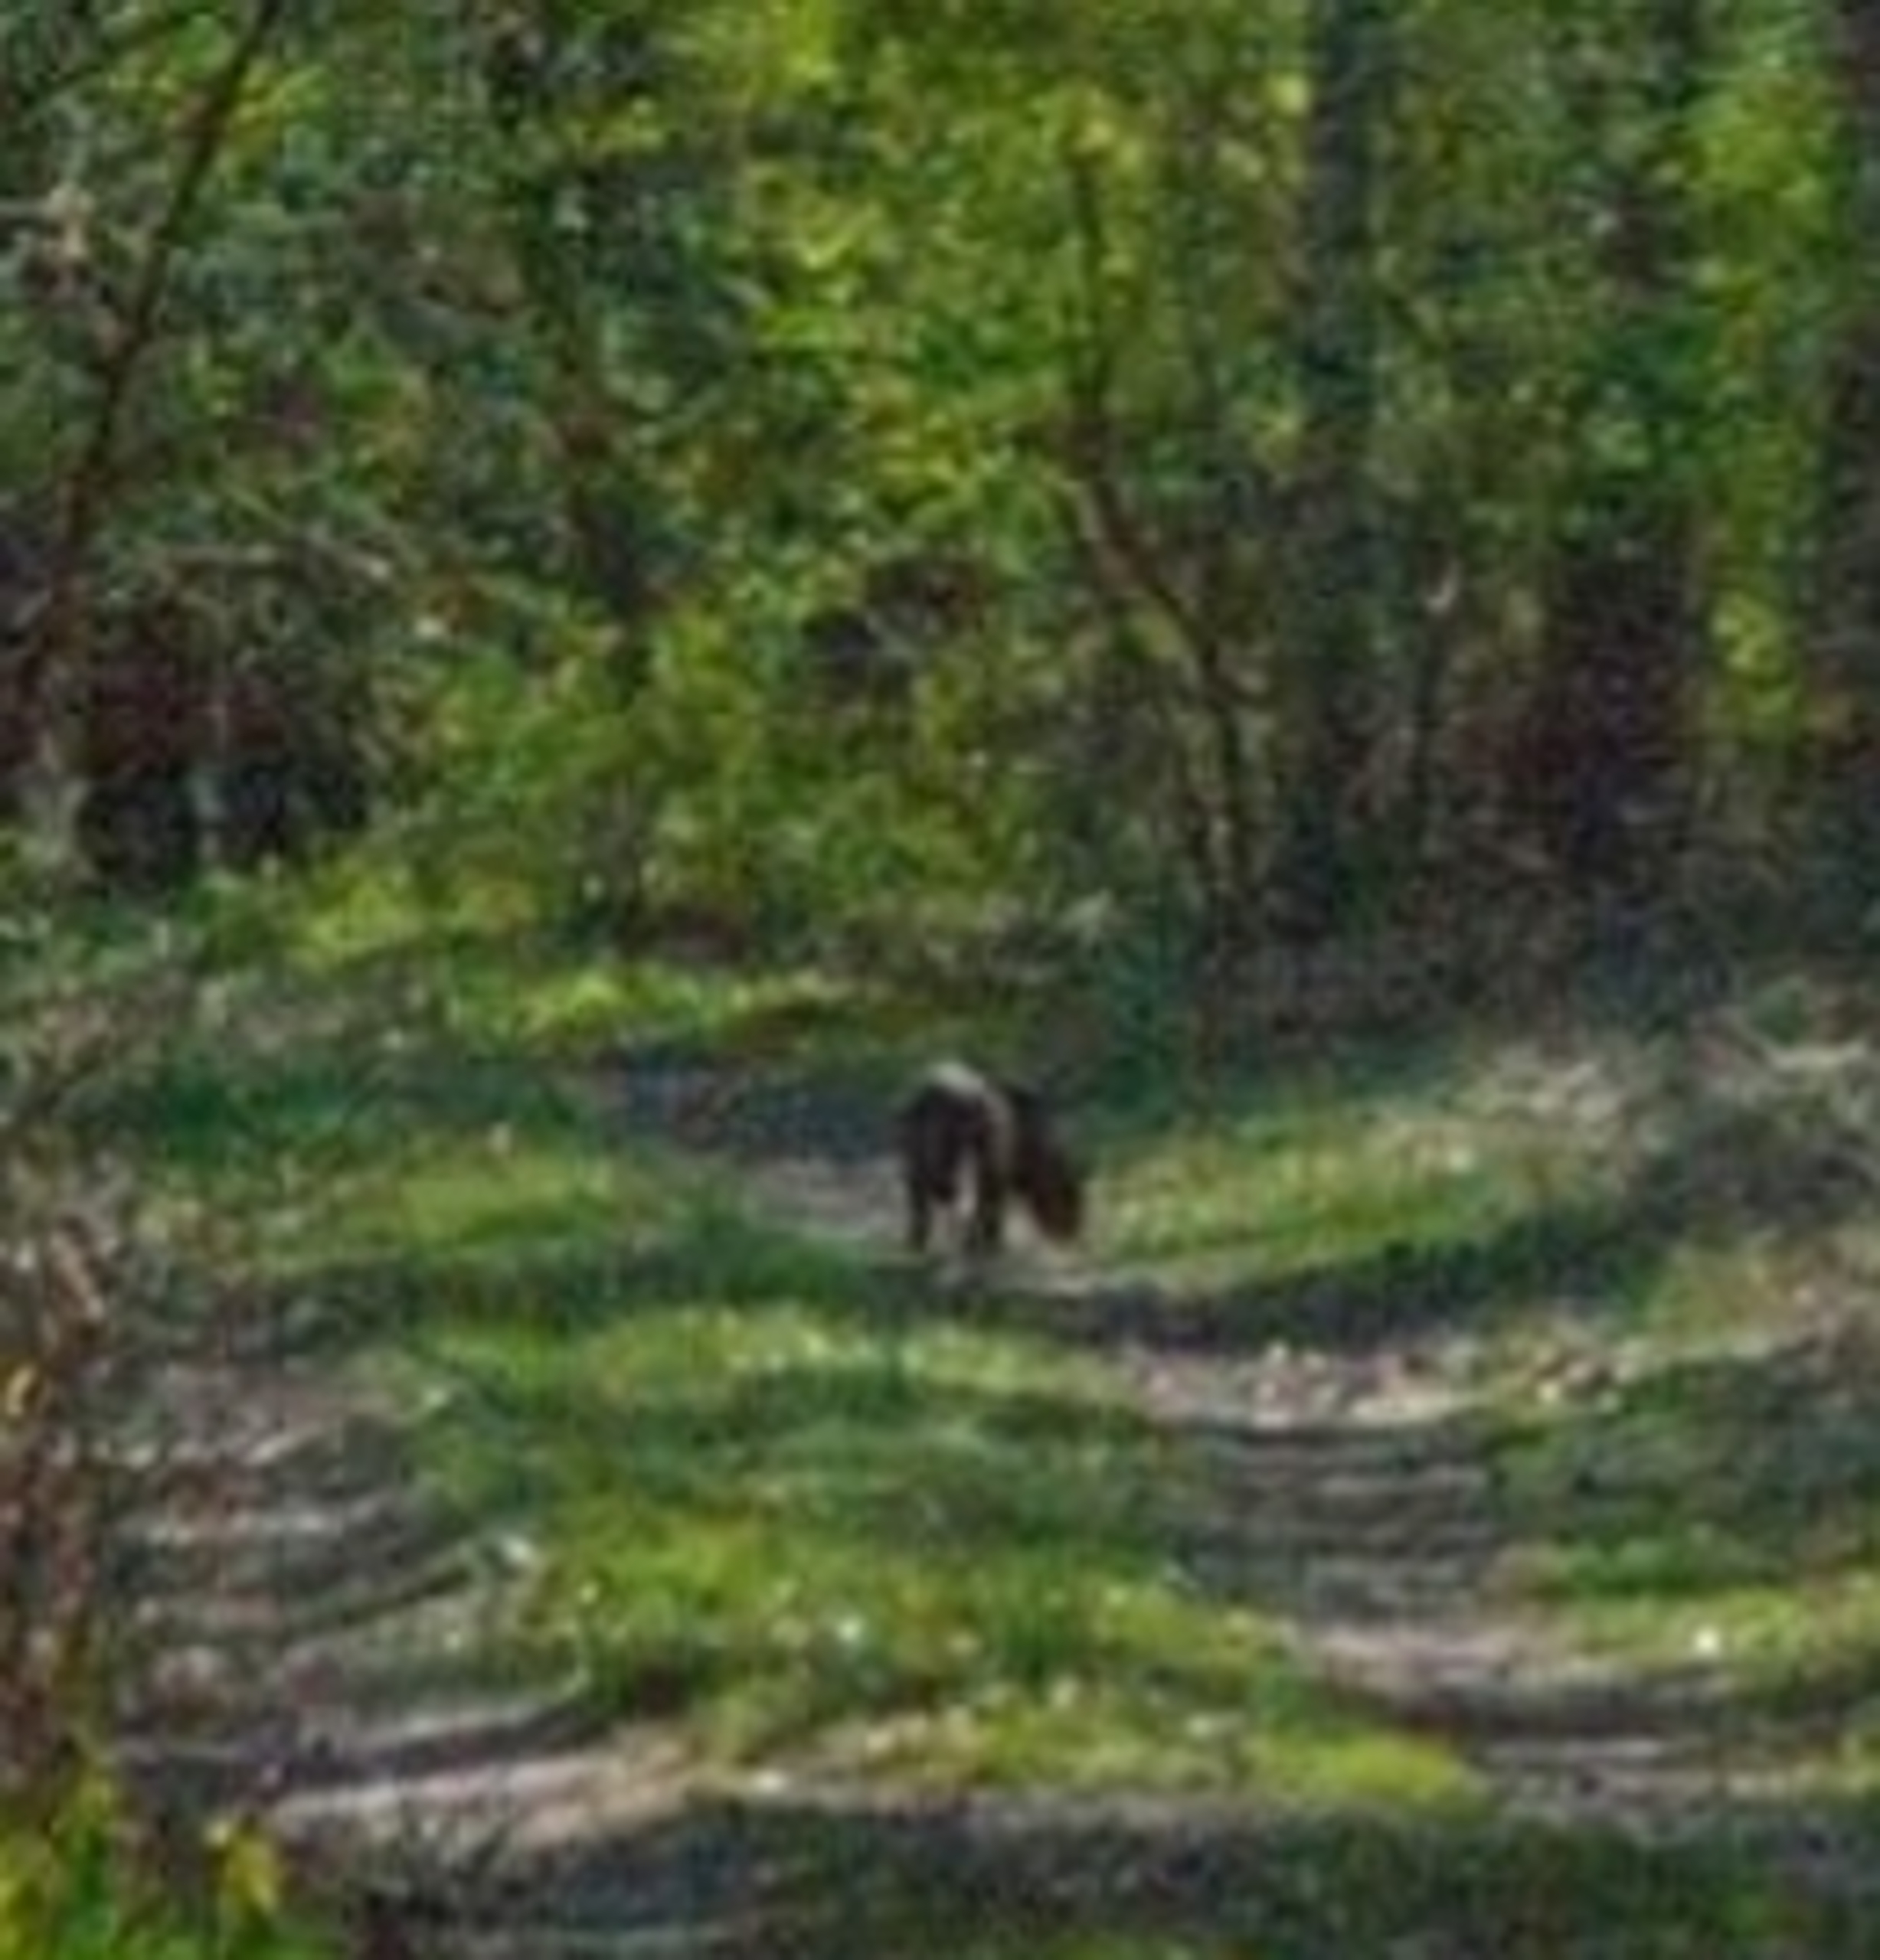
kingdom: Animalia
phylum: Chordata
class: Mammalia
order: Carnivora
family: Felidae
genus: Felis
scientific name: Felis catus
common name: Tamkat
